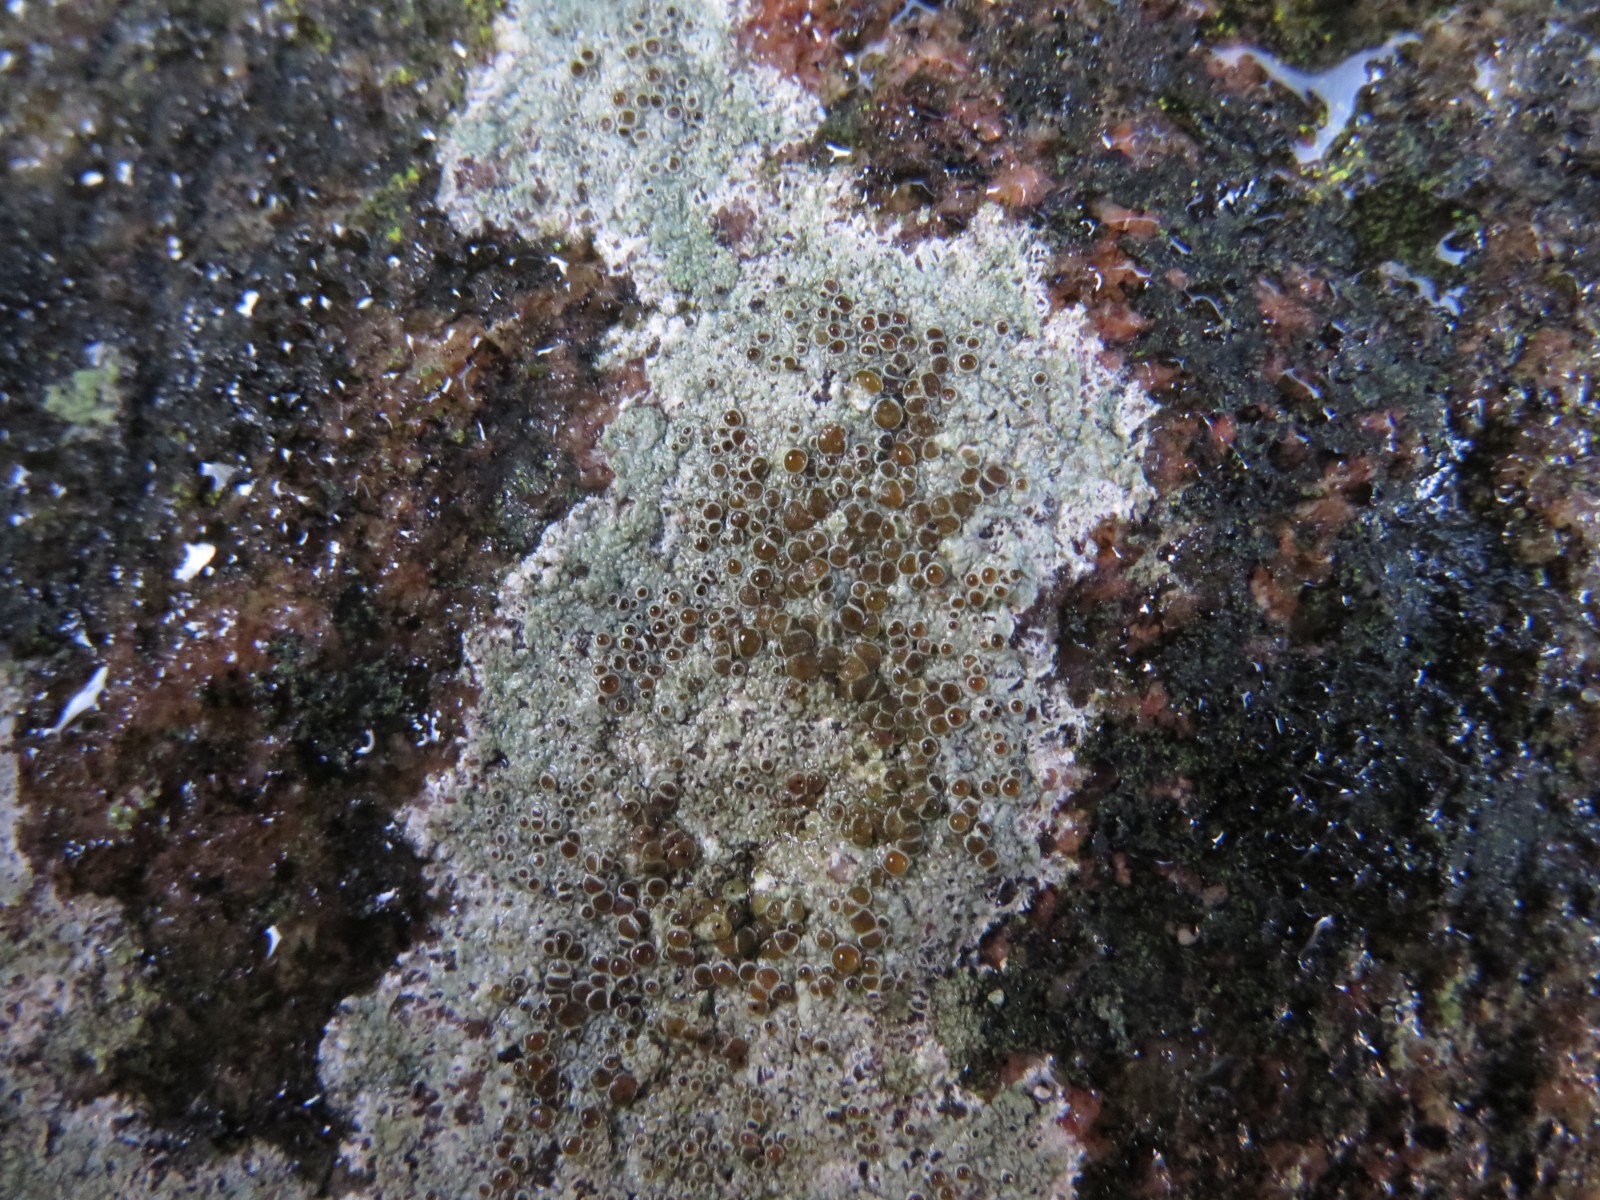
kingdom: Fungi
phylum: Ascomycota
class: Lecanoromycetes
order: Lecanorales
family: Lecanoraceae
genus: Lecanora
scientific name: Lecanora campestris
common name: mur-kantskivelav
